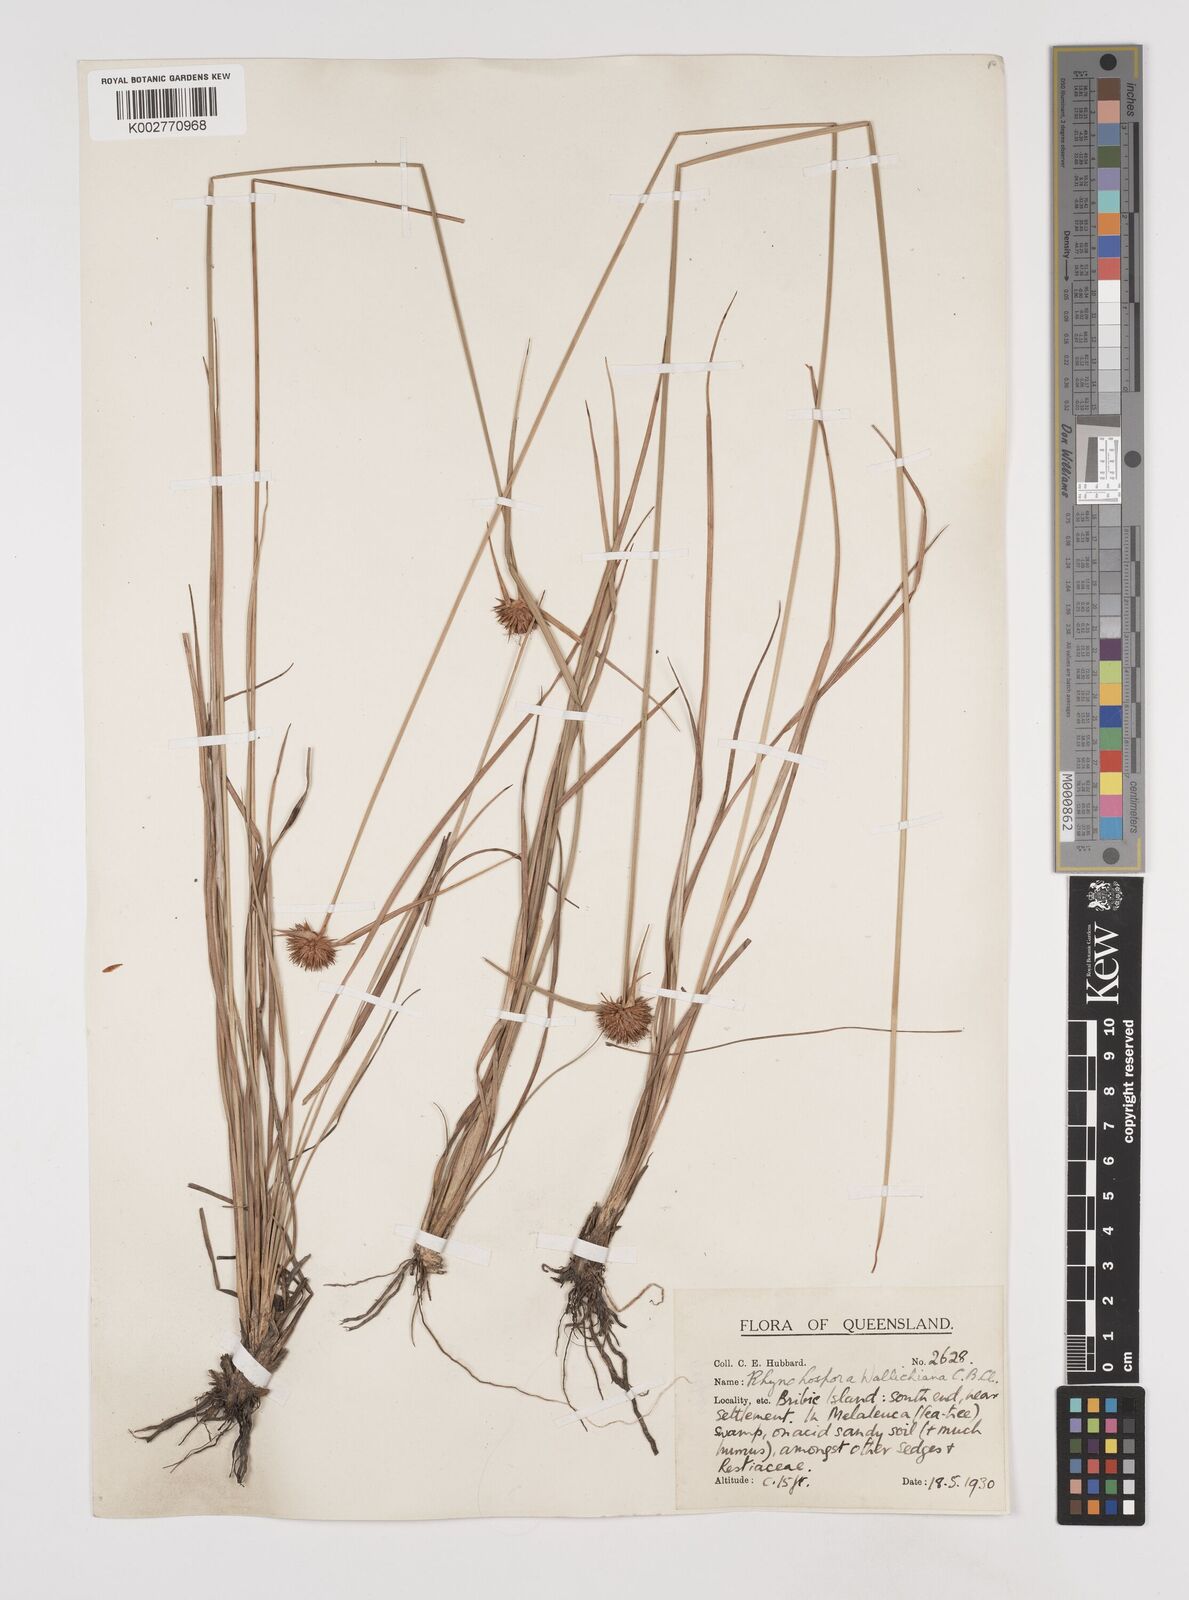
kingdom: Plantae
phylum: Tracheophyta
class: Liliopsida
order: Poales
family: Cyperaceae
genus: Rhynchospora
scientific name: Rhynchospora rubra
